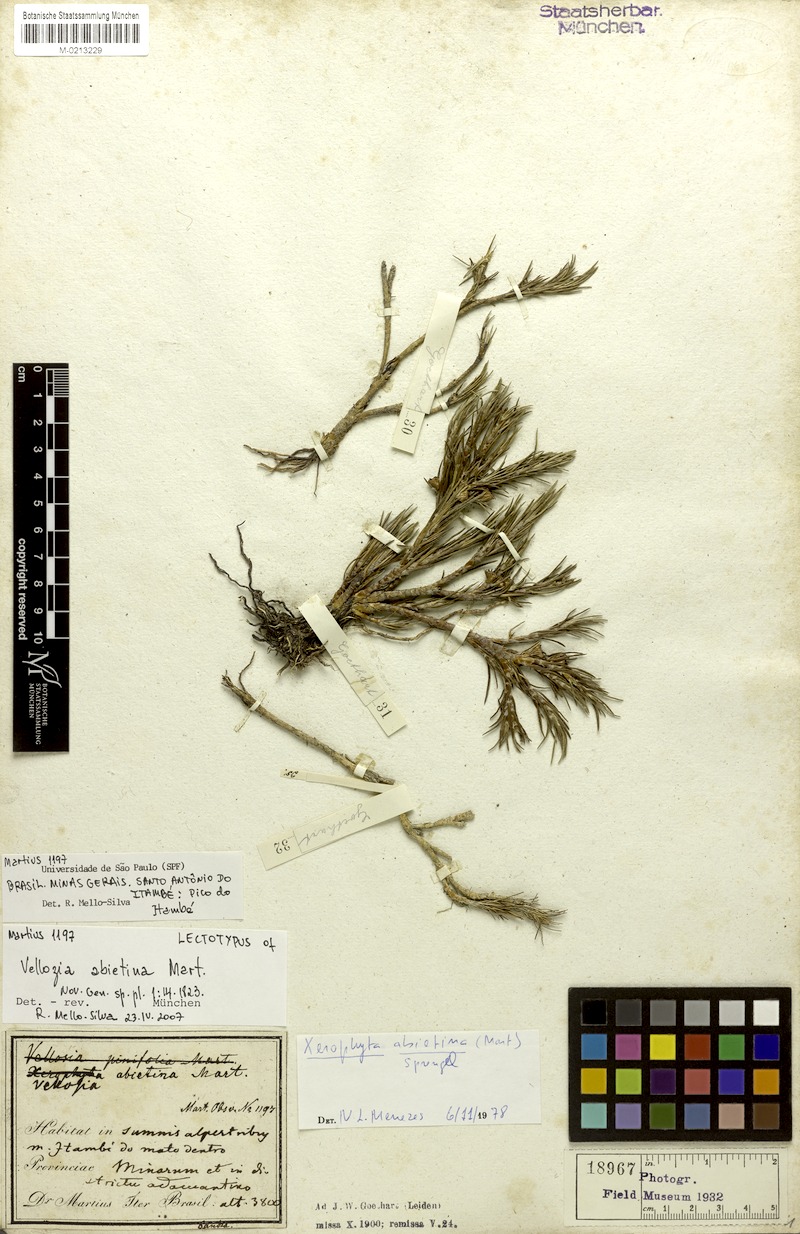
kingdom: Plantae
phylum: Tracheophyta
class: Liliopsida
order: Pandanales
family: Velloziaceae
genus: Vellozia
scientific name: Vellozia abietina
